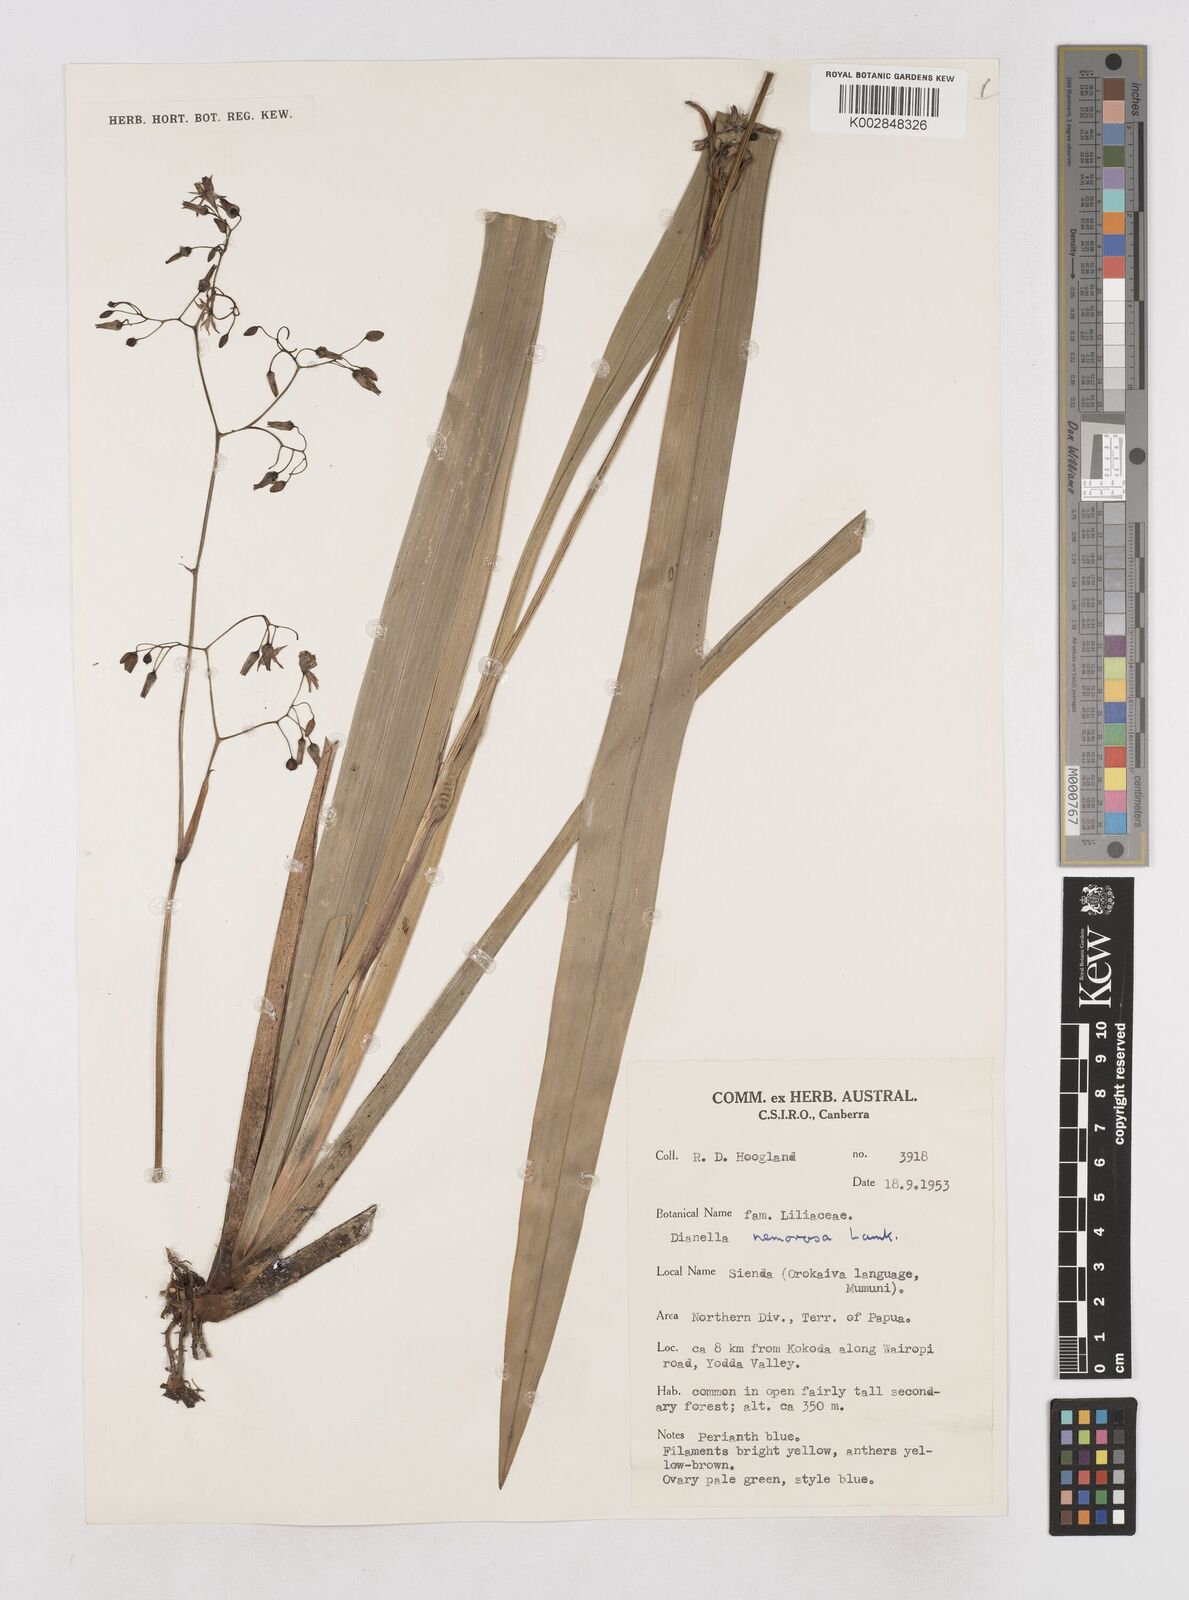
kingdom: Plantae
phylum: Tracheophyta
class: Liliopsida
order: Asparagales
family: Asphodelaceae
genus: Dianella
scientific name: Dianella ensifolia
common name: New zealand lilyplant
